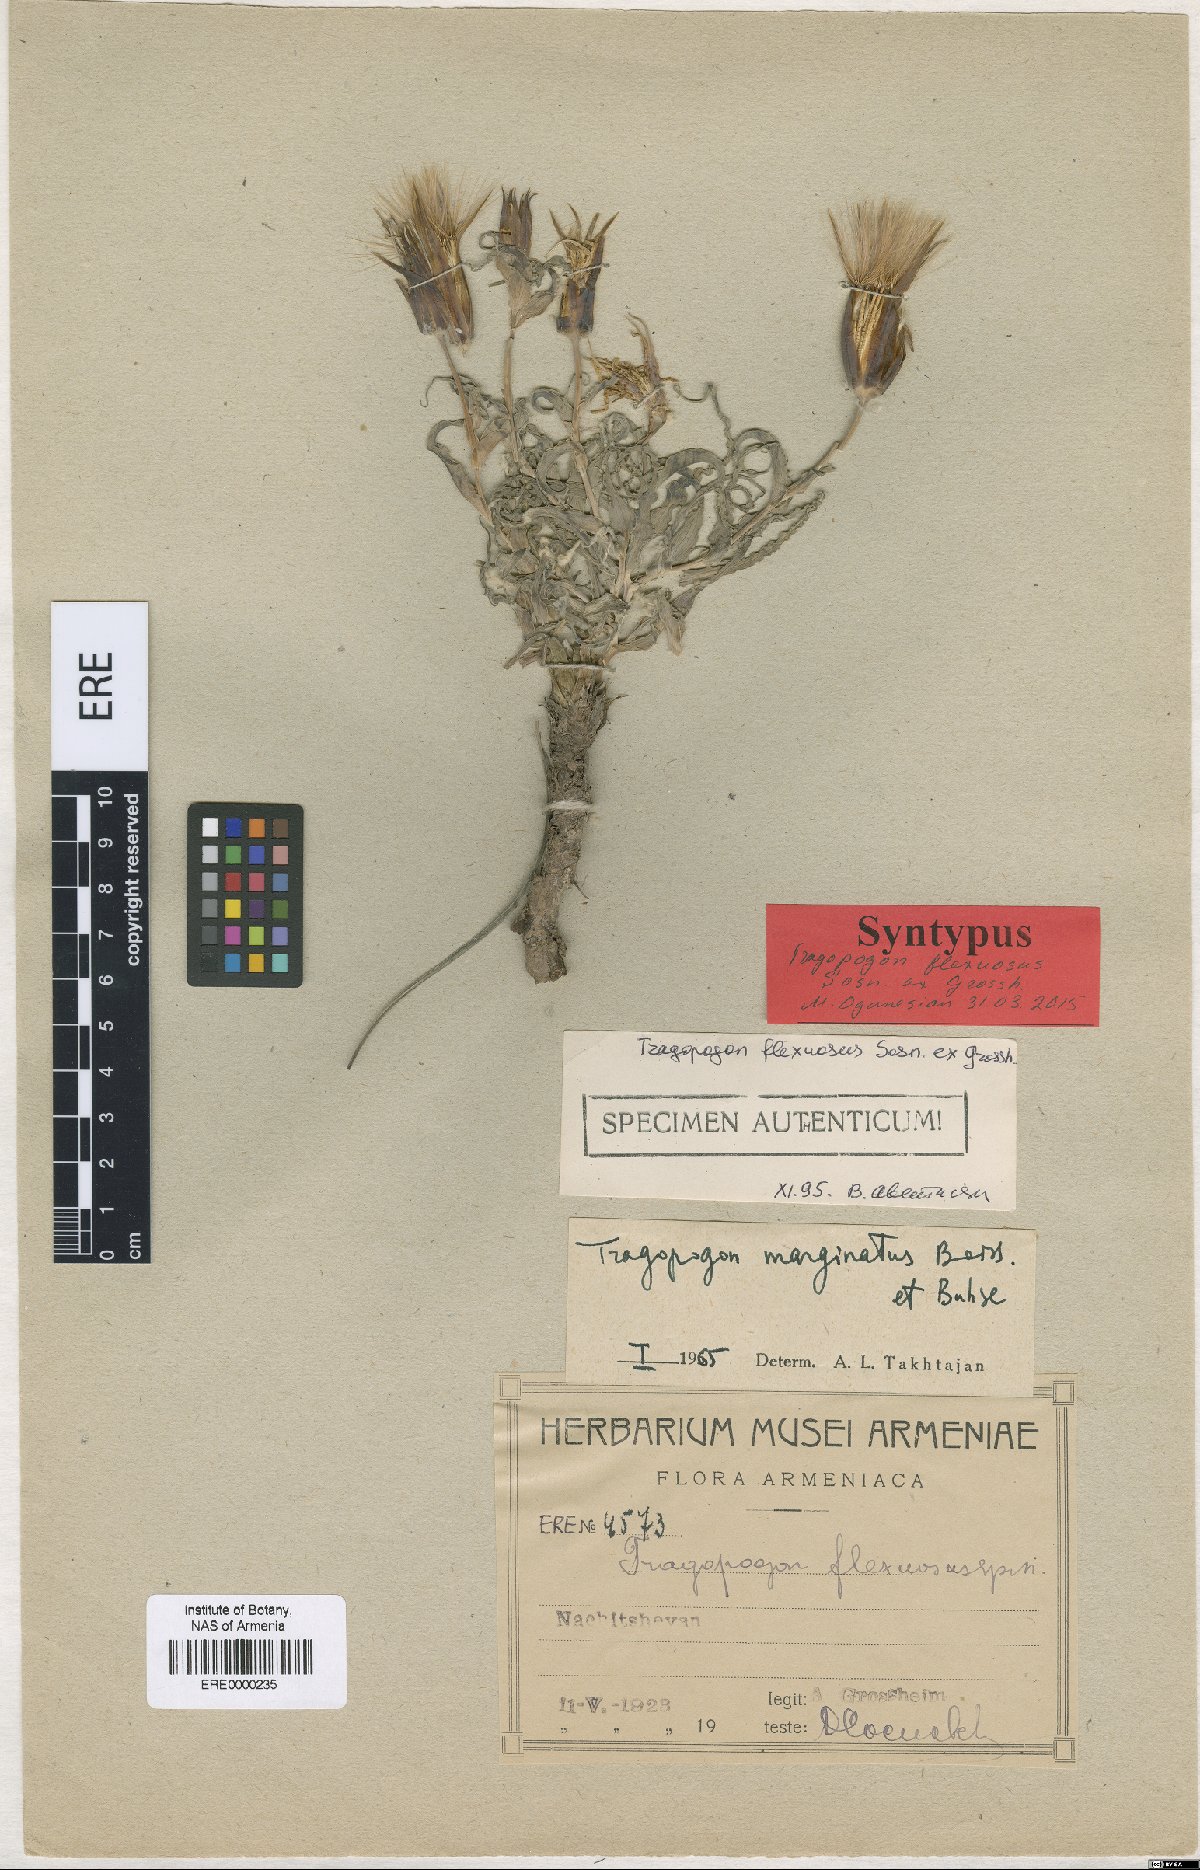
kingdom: Plantae
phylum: Tracheophyta
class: Magnoliopsida
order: Asterales
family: Asteraceae
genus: Tragopogon
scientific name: Tragopogon marginatus
